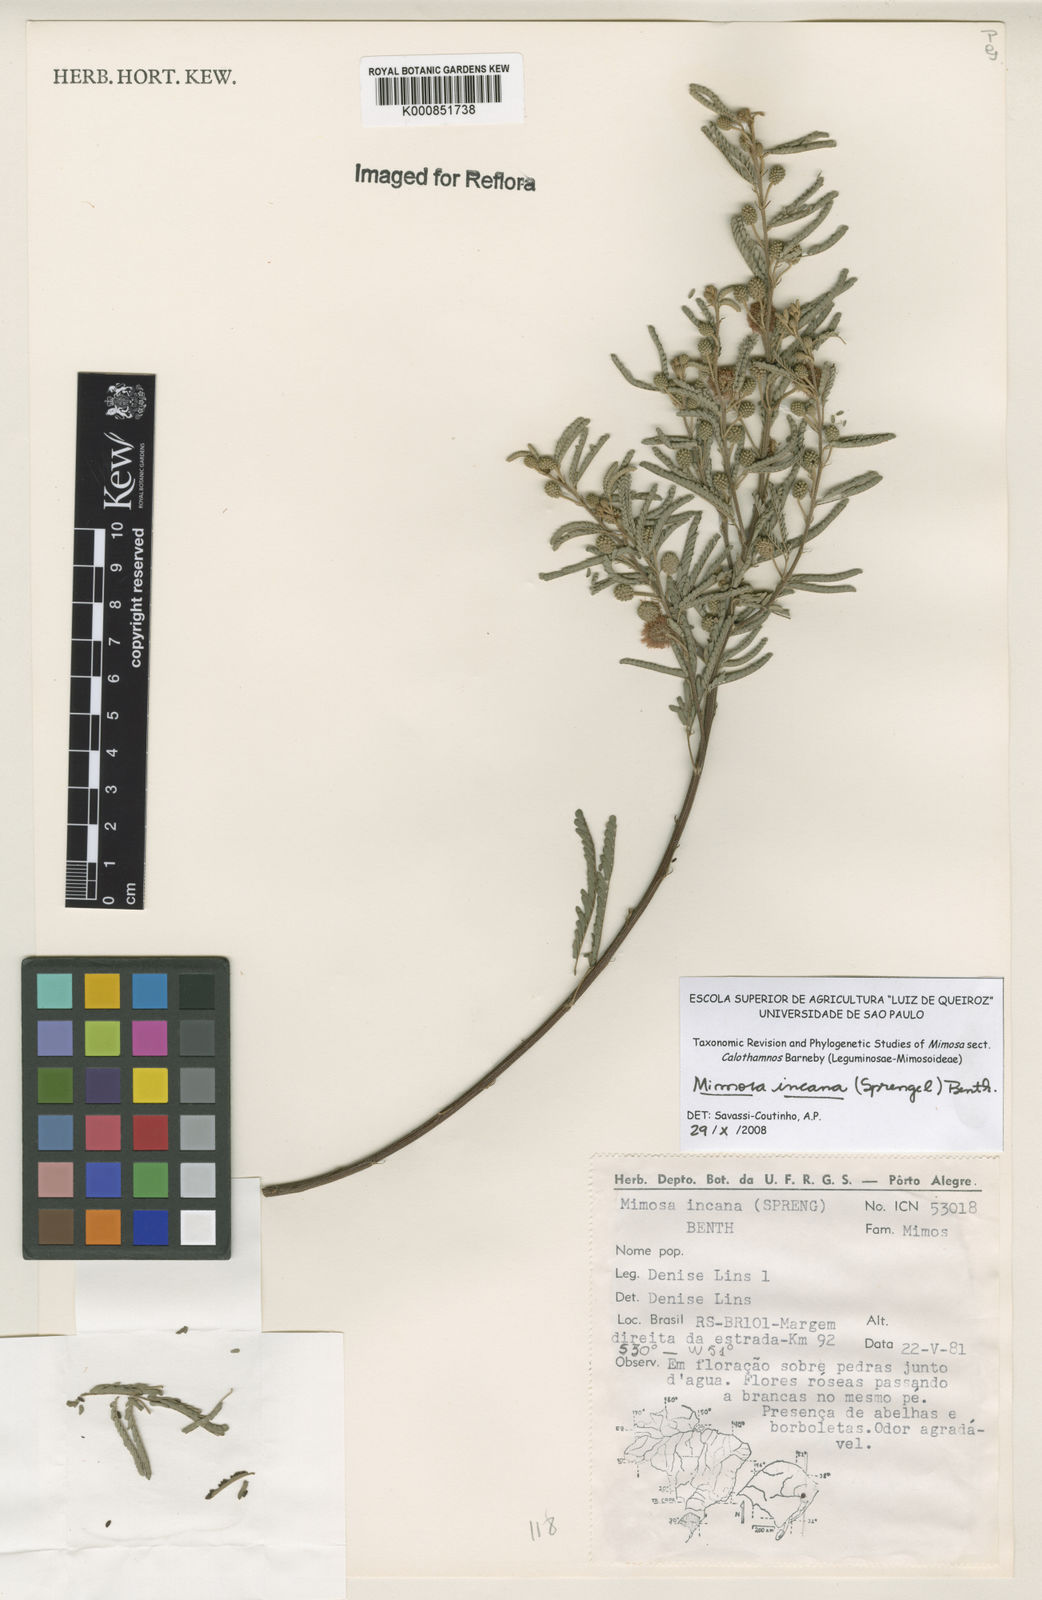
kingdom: Plantae
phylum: Tracheophyta
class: Magnoliopsida
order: Fabales
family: Fabaceae
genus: Mimosa
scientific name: Mimosa incana
